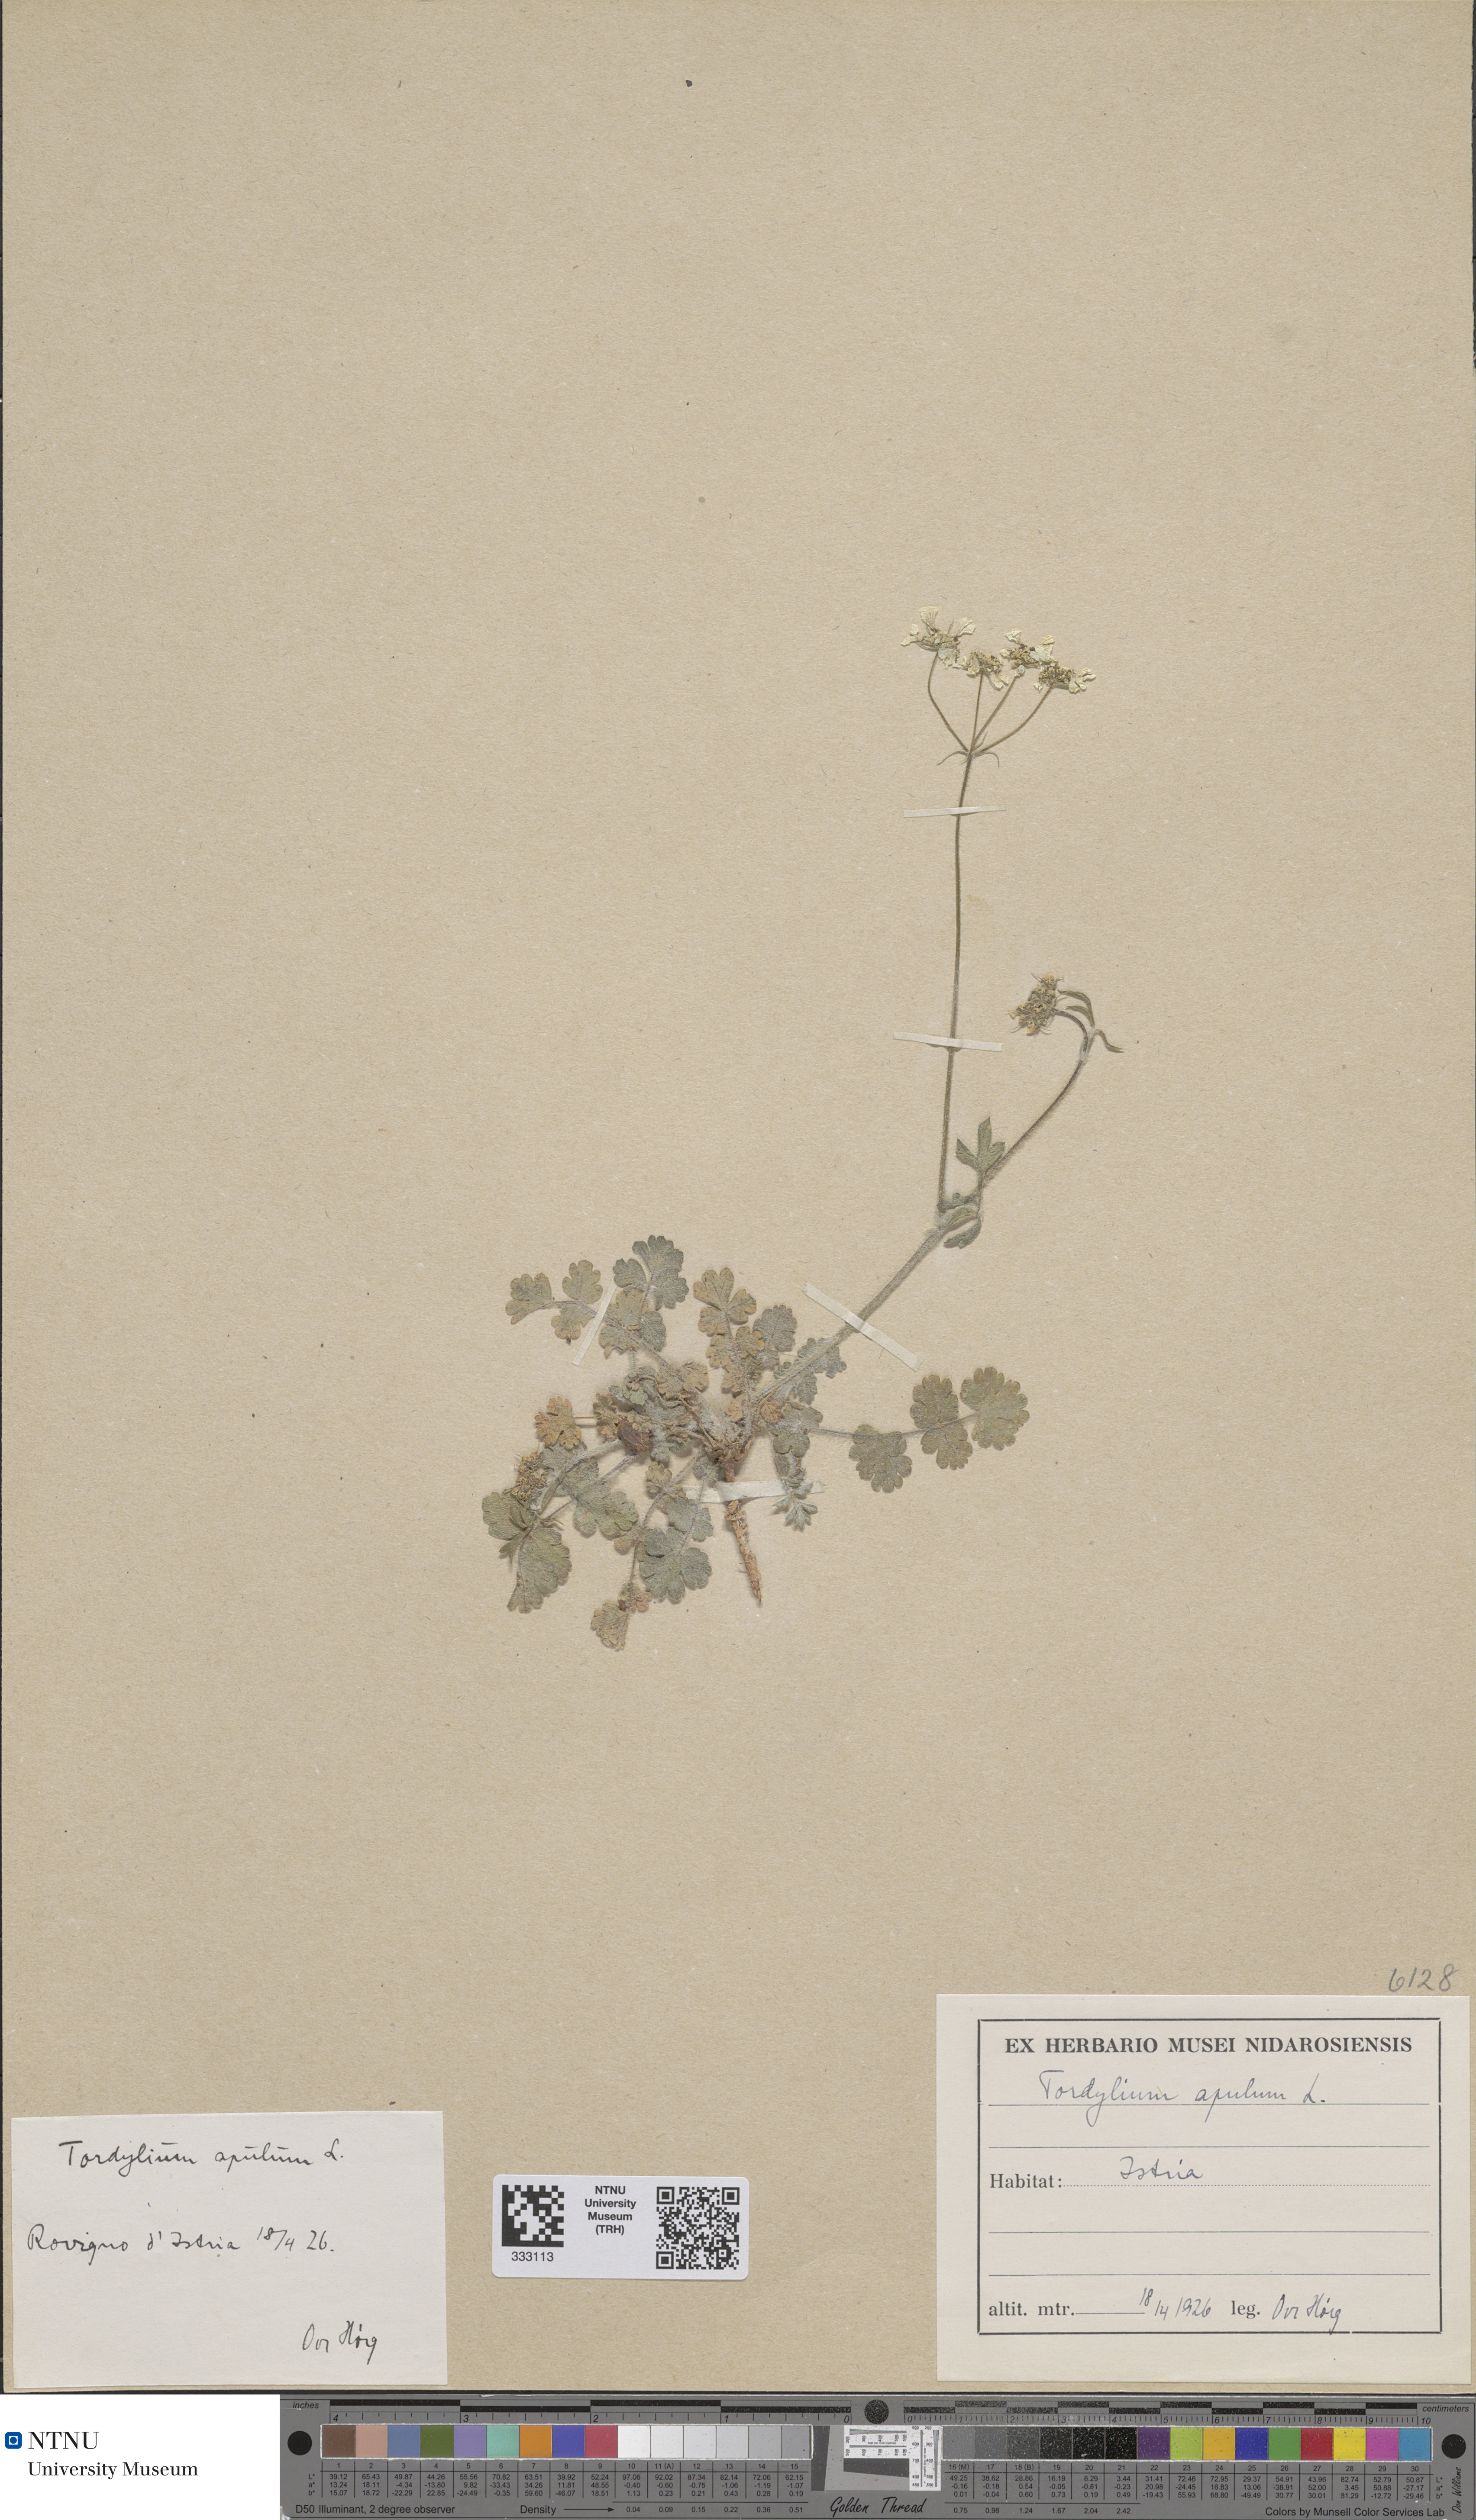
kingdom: Plantae
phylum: Tracheophyta
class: Magnoliopsida
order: Apiales
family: Apiaceae
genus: Tordylium
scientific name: Tordylium apulum
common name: Mediterranean hartwort
